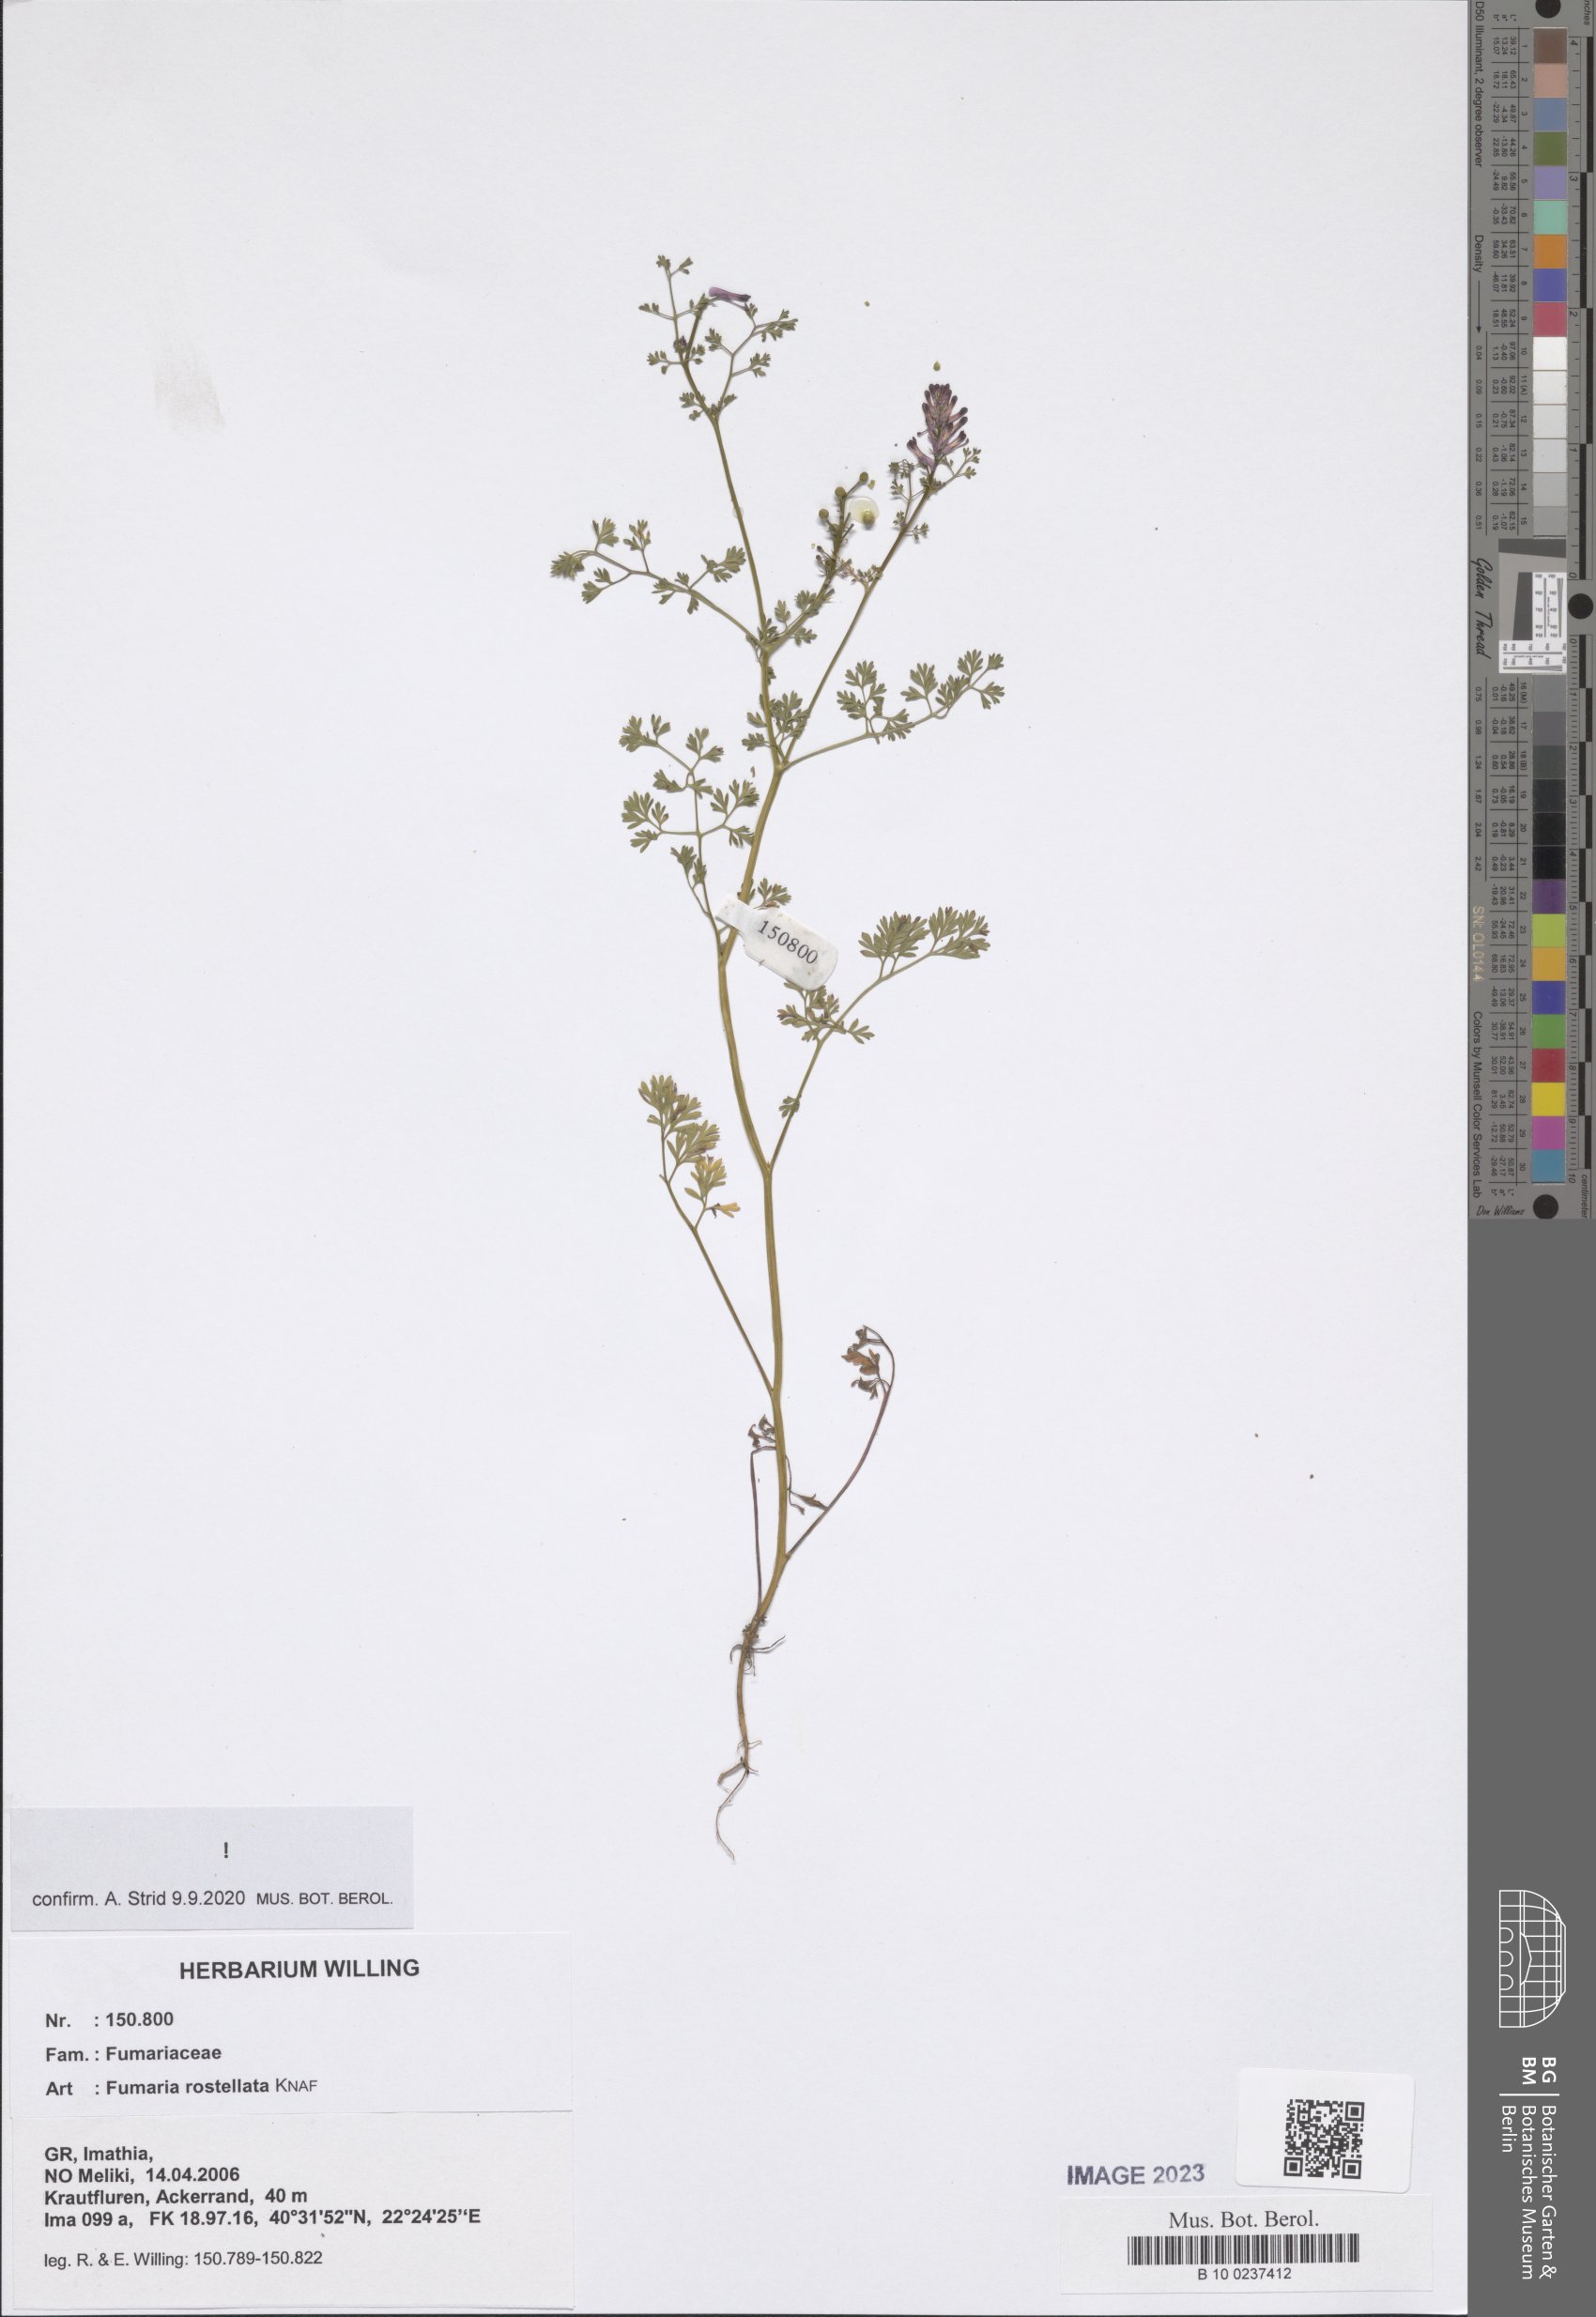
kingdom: Plantae
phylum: Tracheophyta
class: Magnoliopsida
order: Ranunculales
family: Papaveraceae
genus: Fumaria
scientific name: Fumaria rostellata
